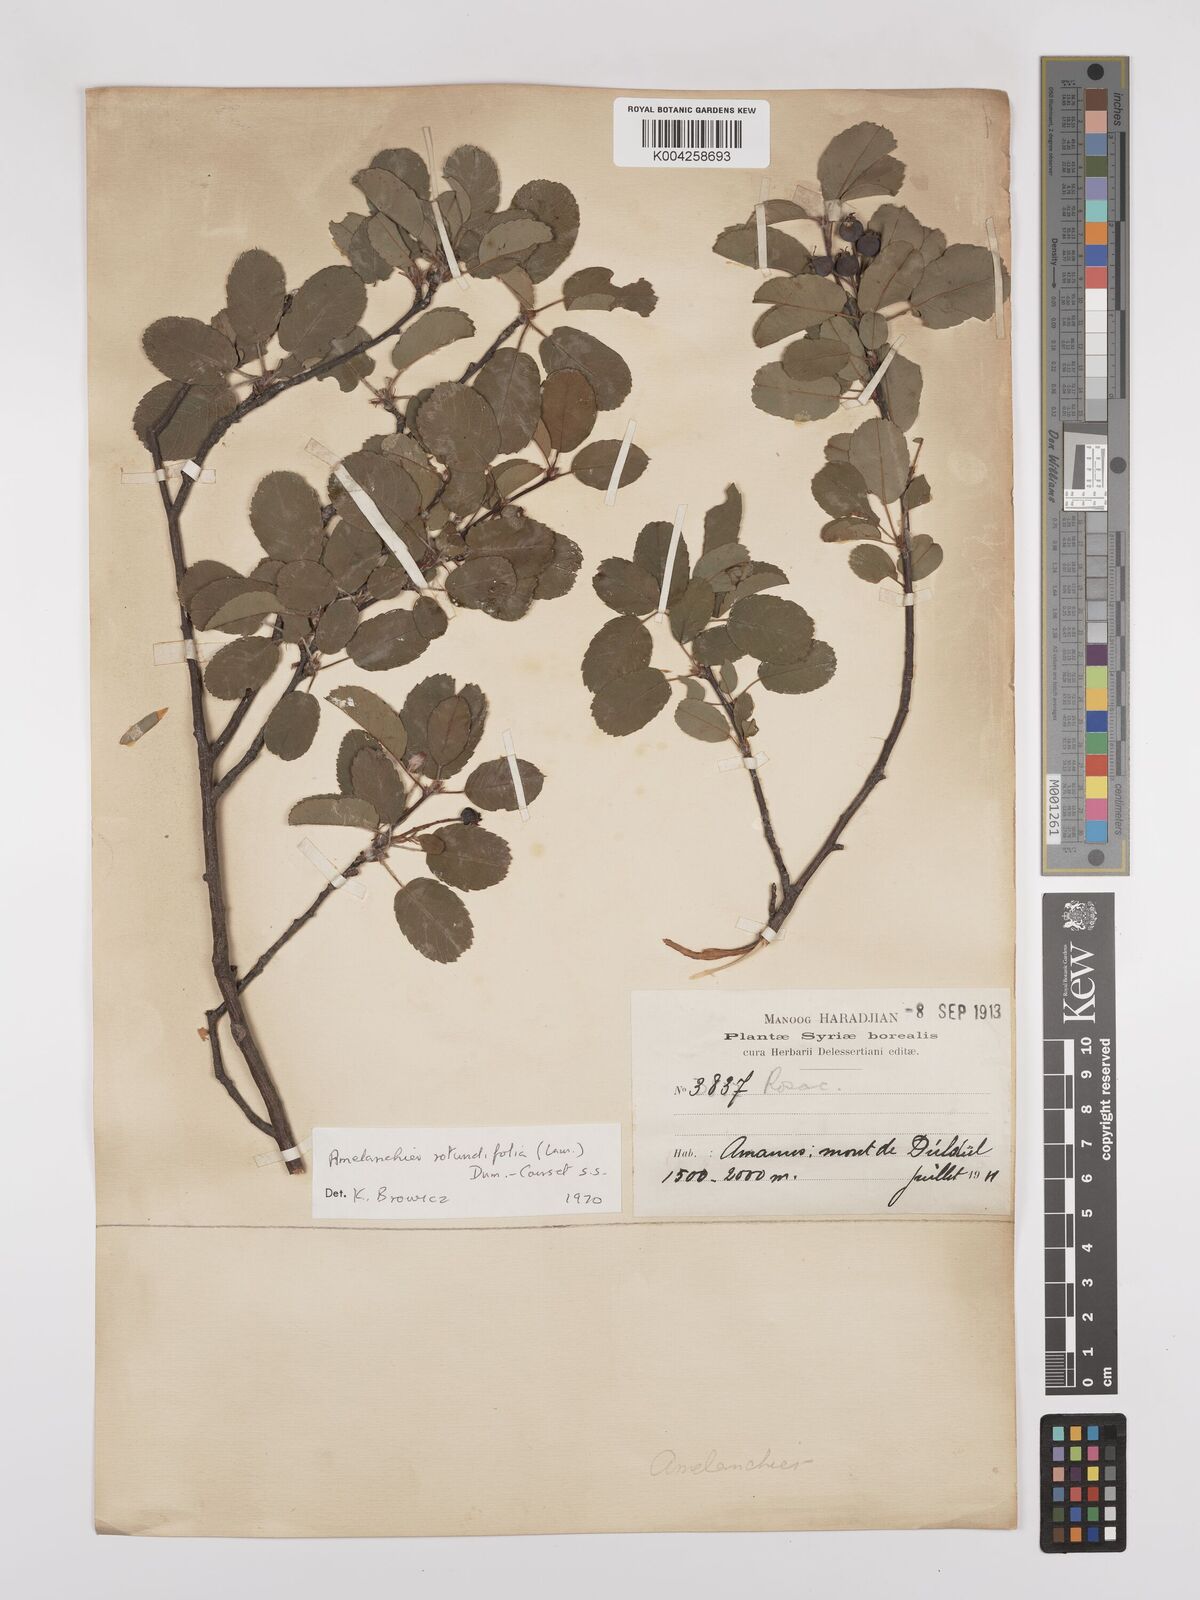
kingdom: Plantae
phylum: Tracheophyta
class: Magnoliopsida
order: Rosales
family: Rosaceae
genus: Amelanchier
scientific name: Amelanchier ovalis
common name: Serviceberry
